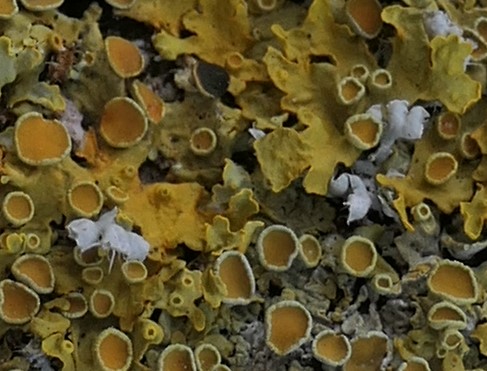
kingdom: Fungi
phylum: Ascomycota
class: Lecanoromycetes
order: Caliciales
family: Physciaceae
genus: Physcia
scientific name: Physcia adscendens
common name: hætte-rosetlav
